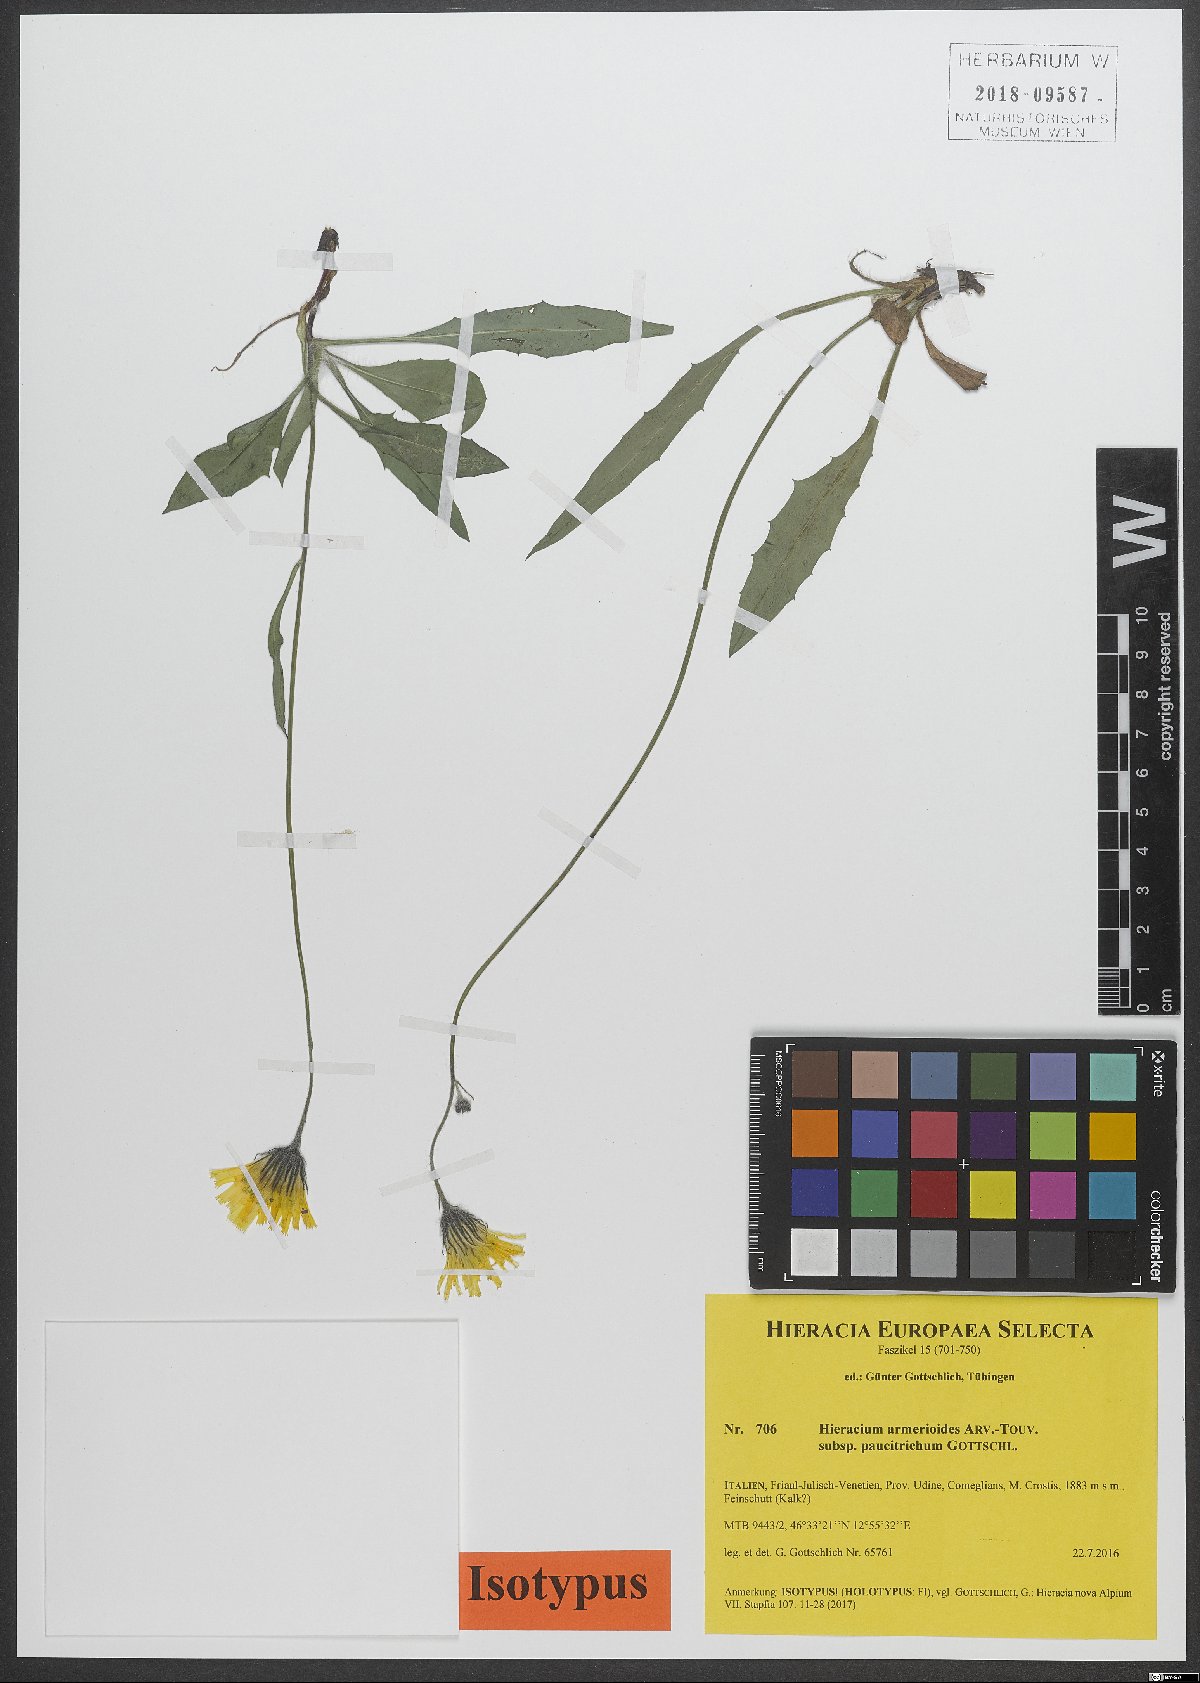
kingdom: Plantae
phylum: Tracheophyta
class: Magnoliopsida
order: Asterales
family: Asteraceae
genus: Hieracium
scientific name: Hieracium armerioides
